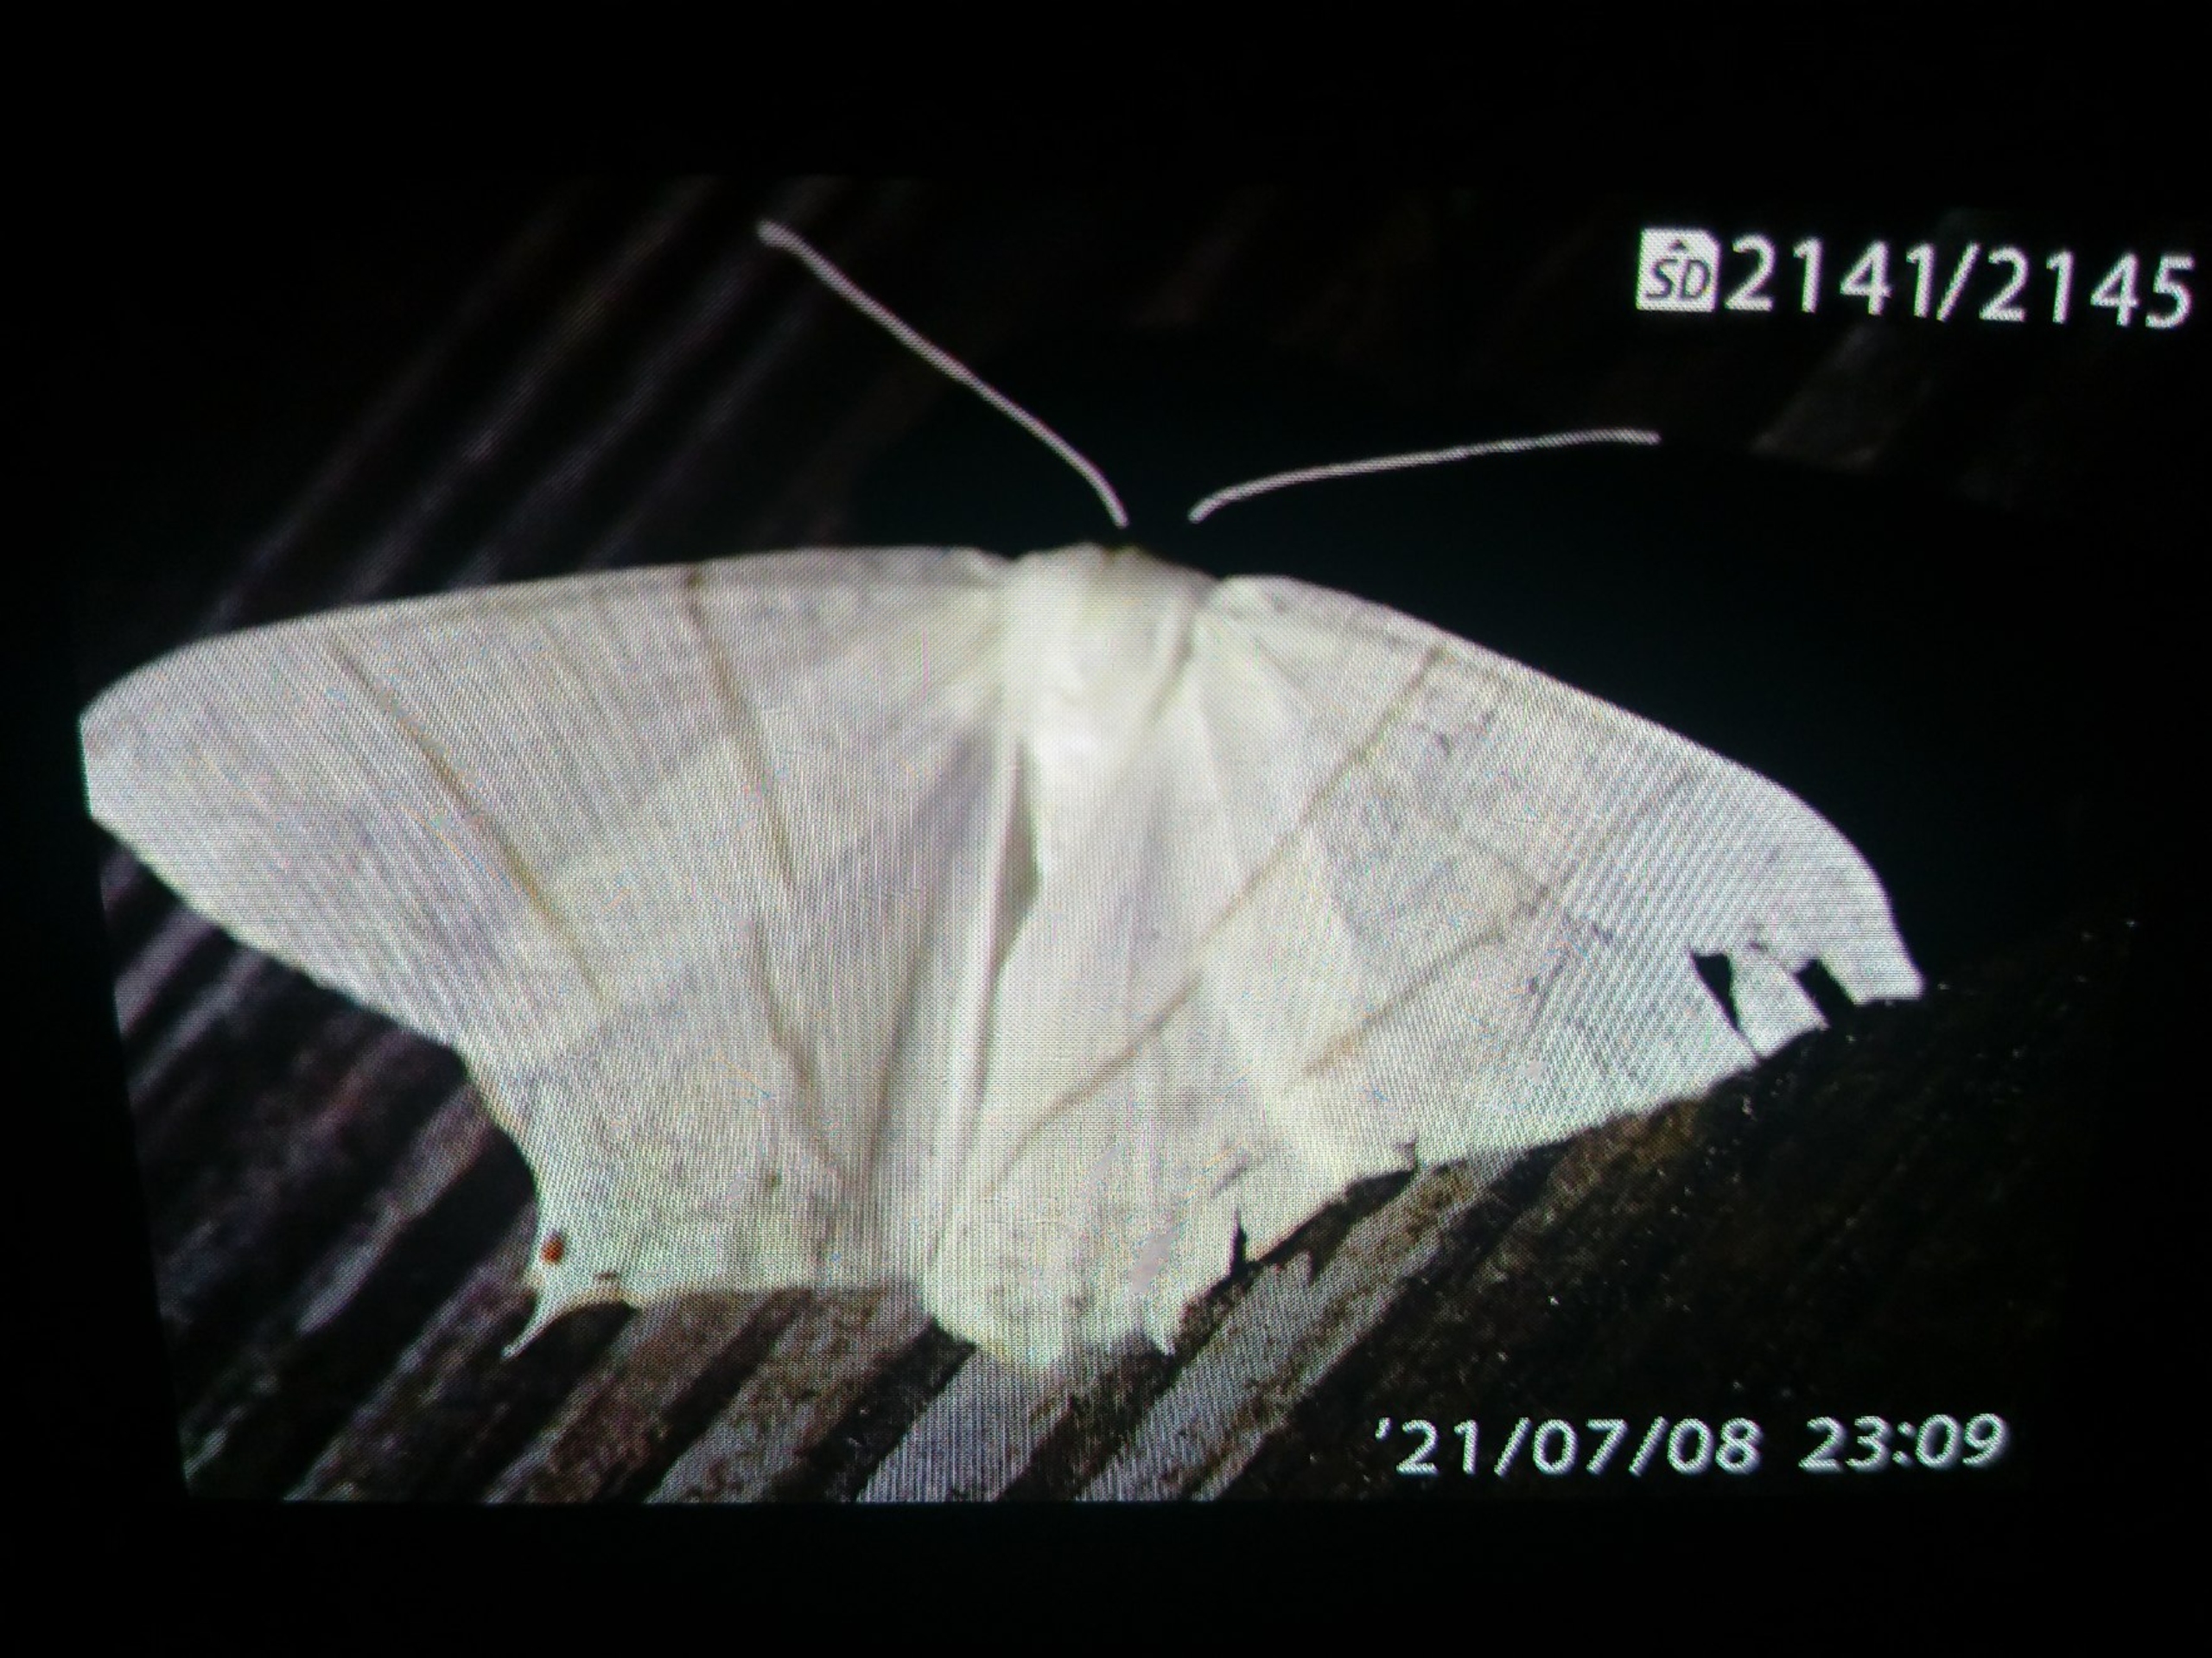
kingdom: Animalia
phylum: Arthropoda
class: Insecta
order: Lepidoptera
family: Geometridae
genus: Ourapteryx
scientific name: Ourapteryx sambucaria
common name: Natsvalehale
